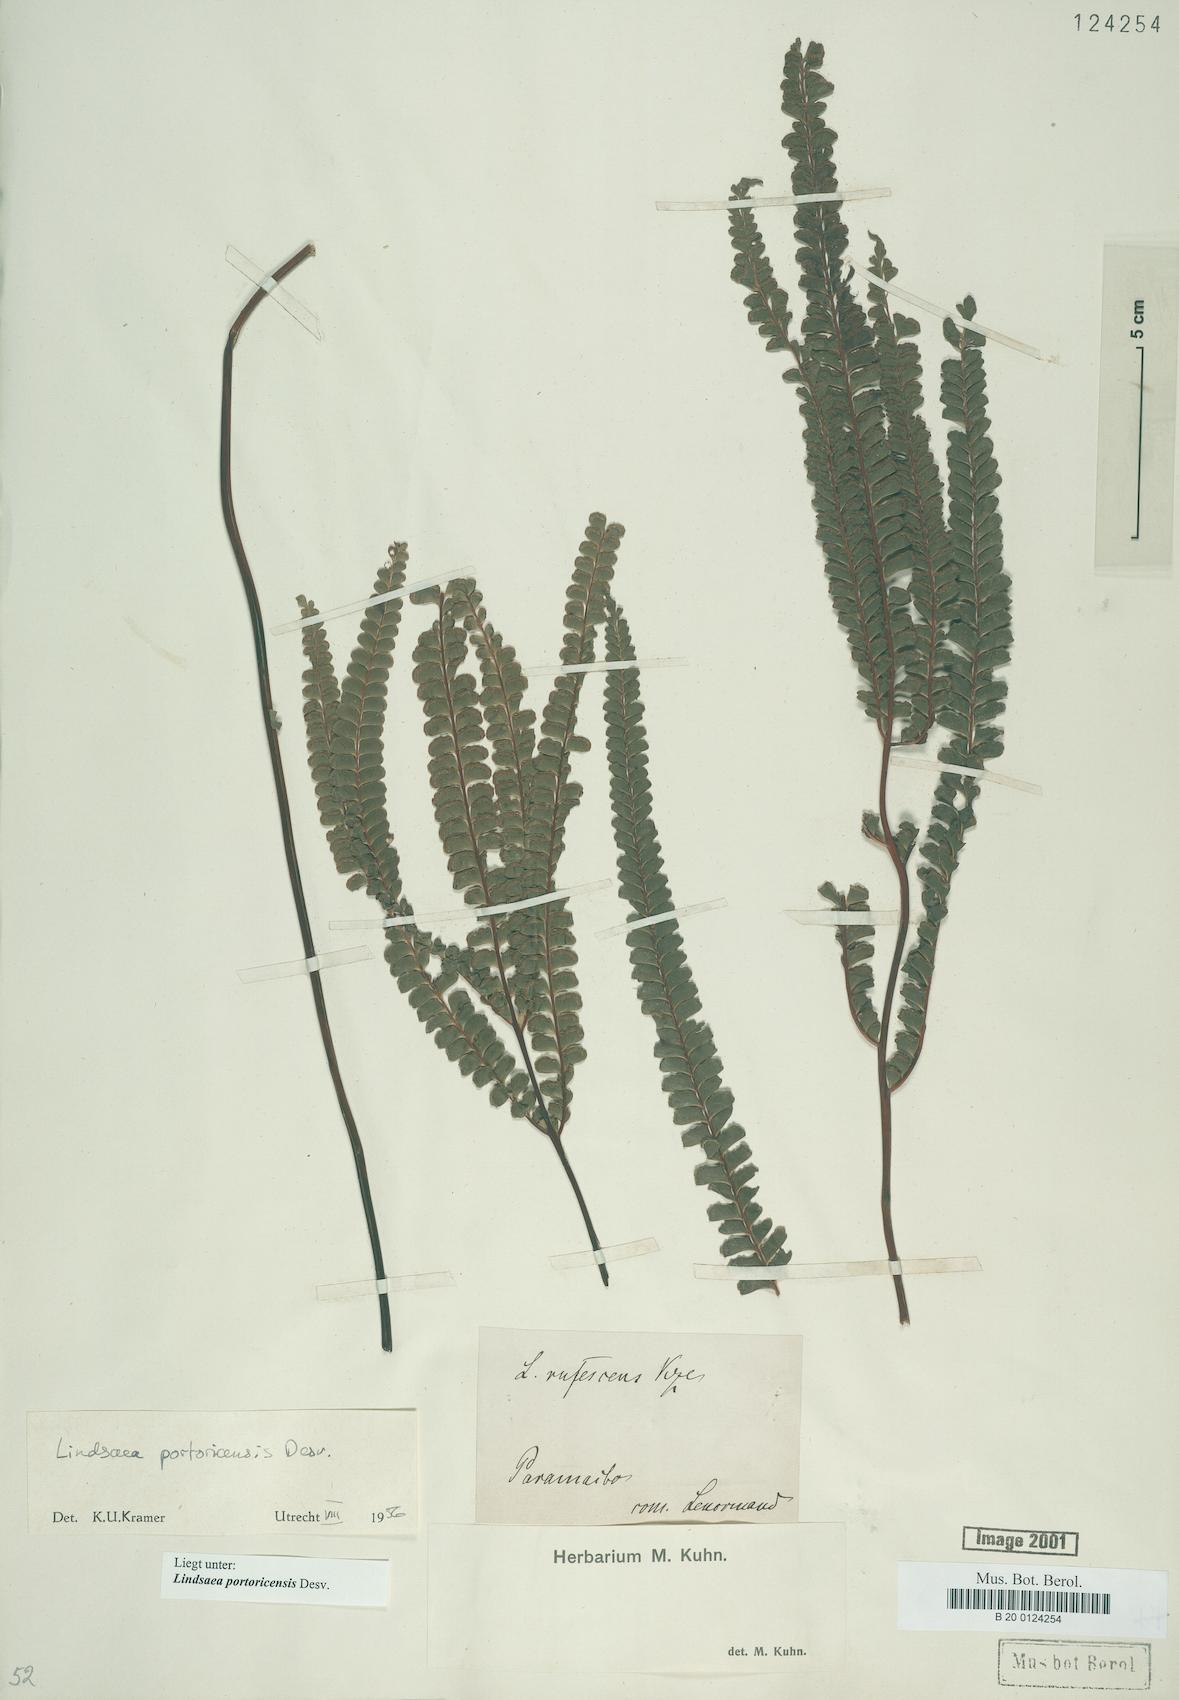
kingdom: Plantae
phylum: Tracheophyta
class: Polypodiopsida
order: Polypodiales
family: Lindsaeaceae
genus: Lindsaea
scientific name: Lindsaea portoricensis
